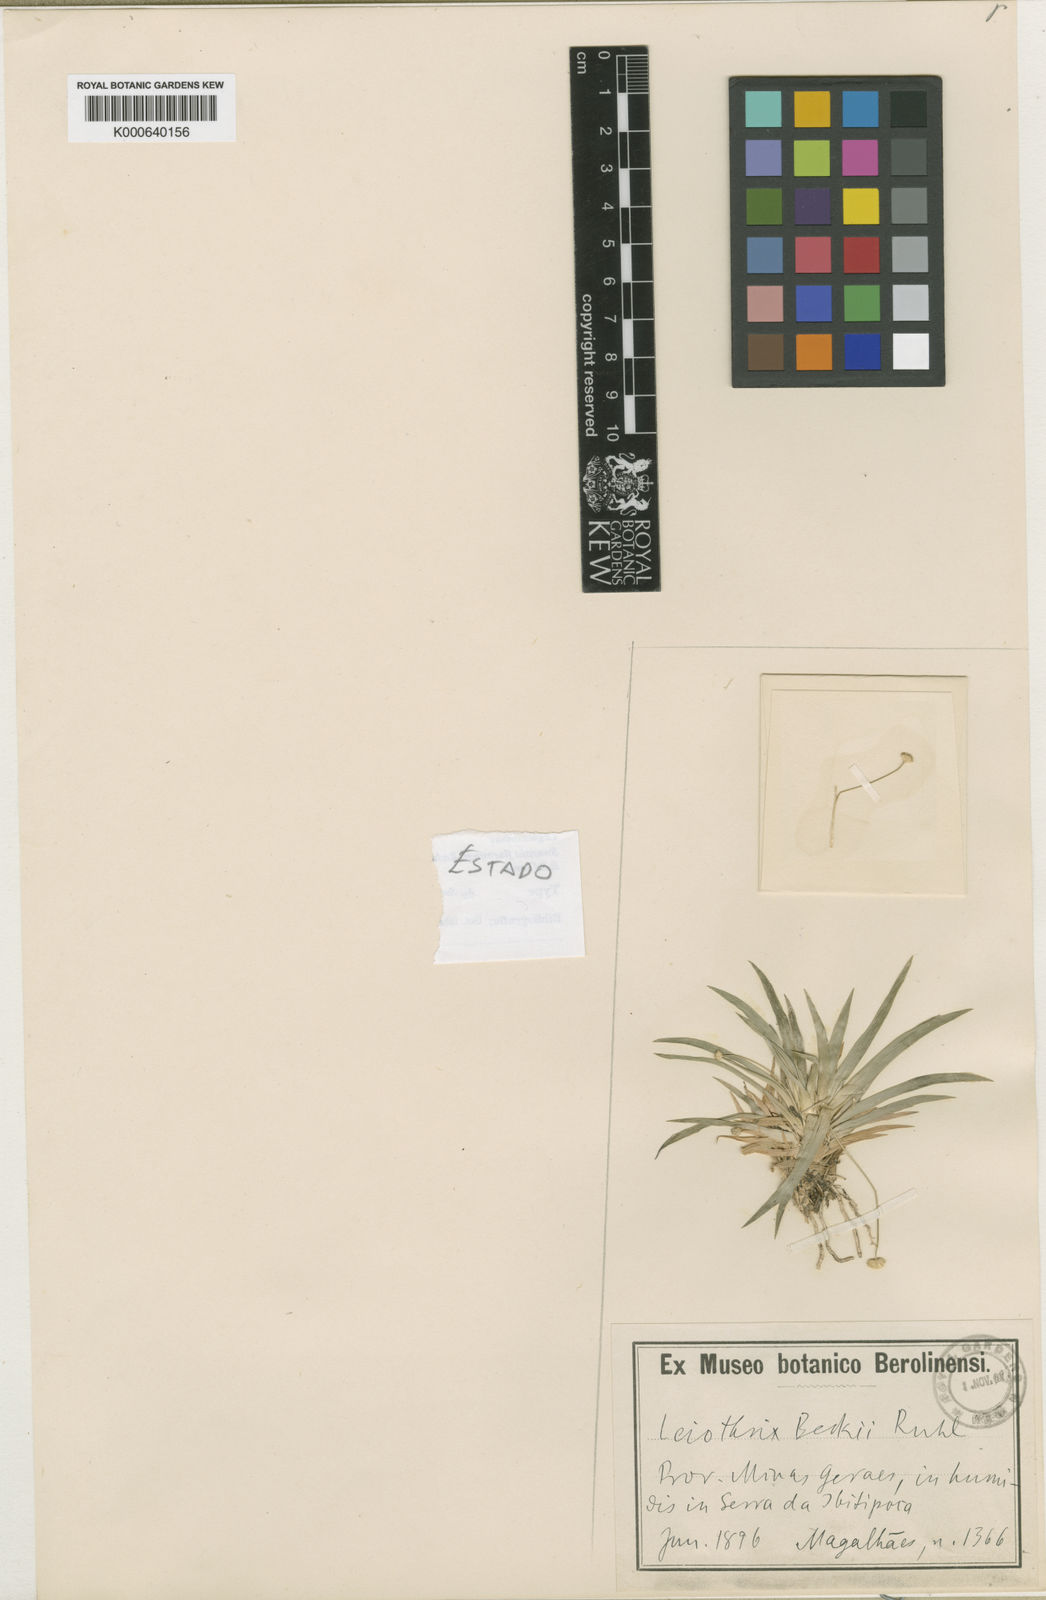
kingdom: Plantae
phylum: Tracheophyta
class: Liliopsida
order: Poales
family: Eriocaulaceae
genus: Leiothrix
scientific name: Leiothrix beckii
